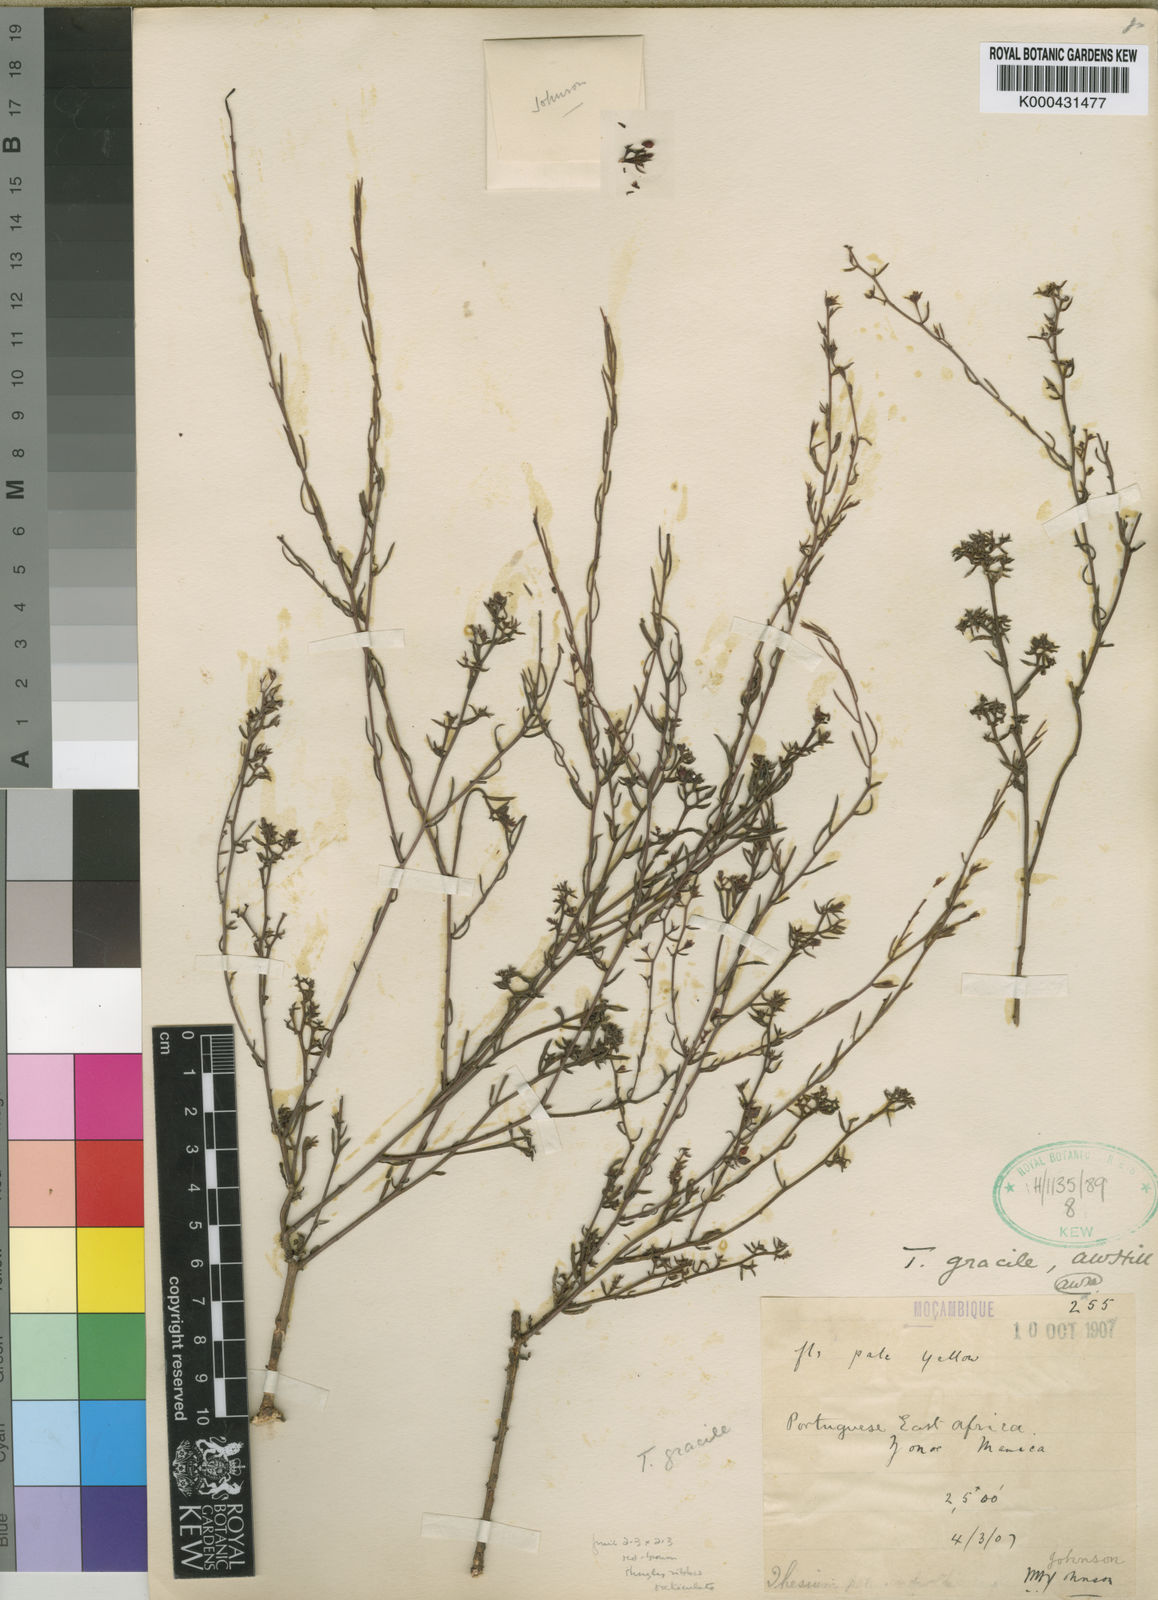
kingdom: Plantae
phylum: Tracheophyta
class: Magnoliopsida
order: Santalales
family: Thesiaceae
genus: Thesium
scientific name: Thesium gracile
